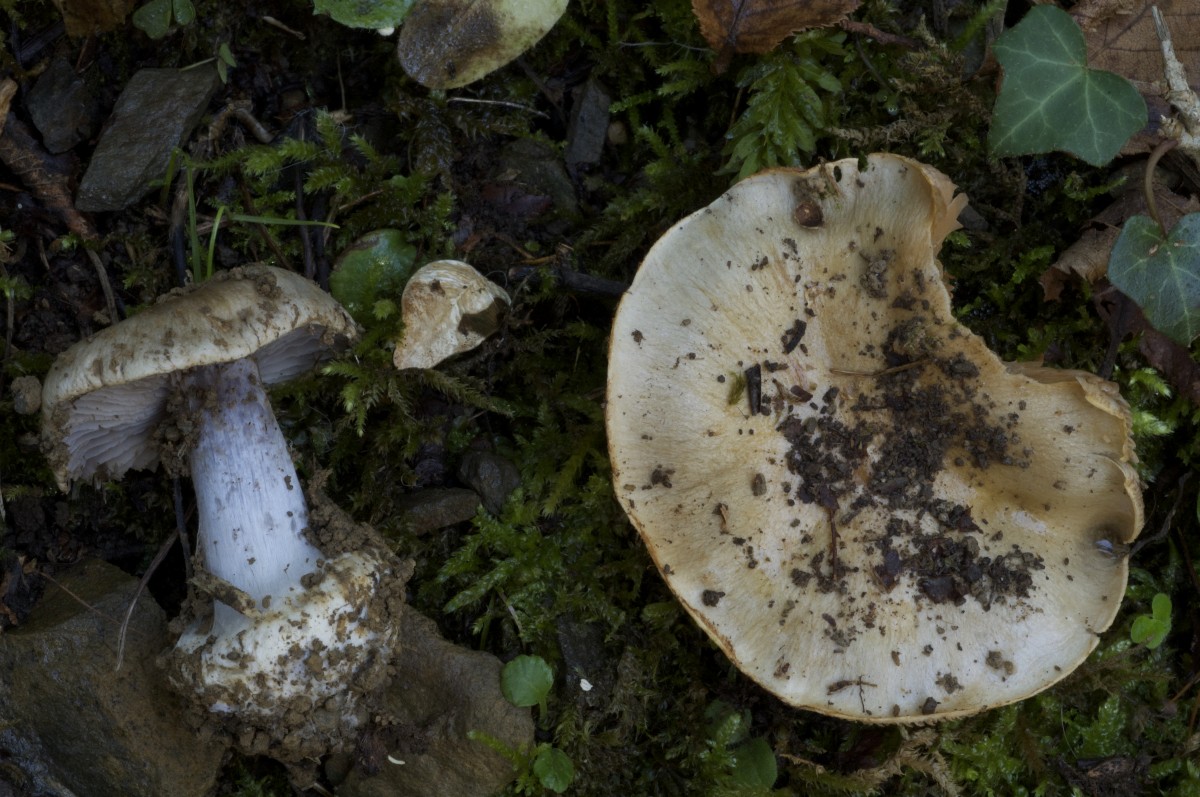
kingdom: Fungi
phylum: Basidiomycota
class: Agaricomycetes
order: Agaricales
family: Cortinariaceae
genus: Cortinarius
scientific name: Cortinarius dionysae
